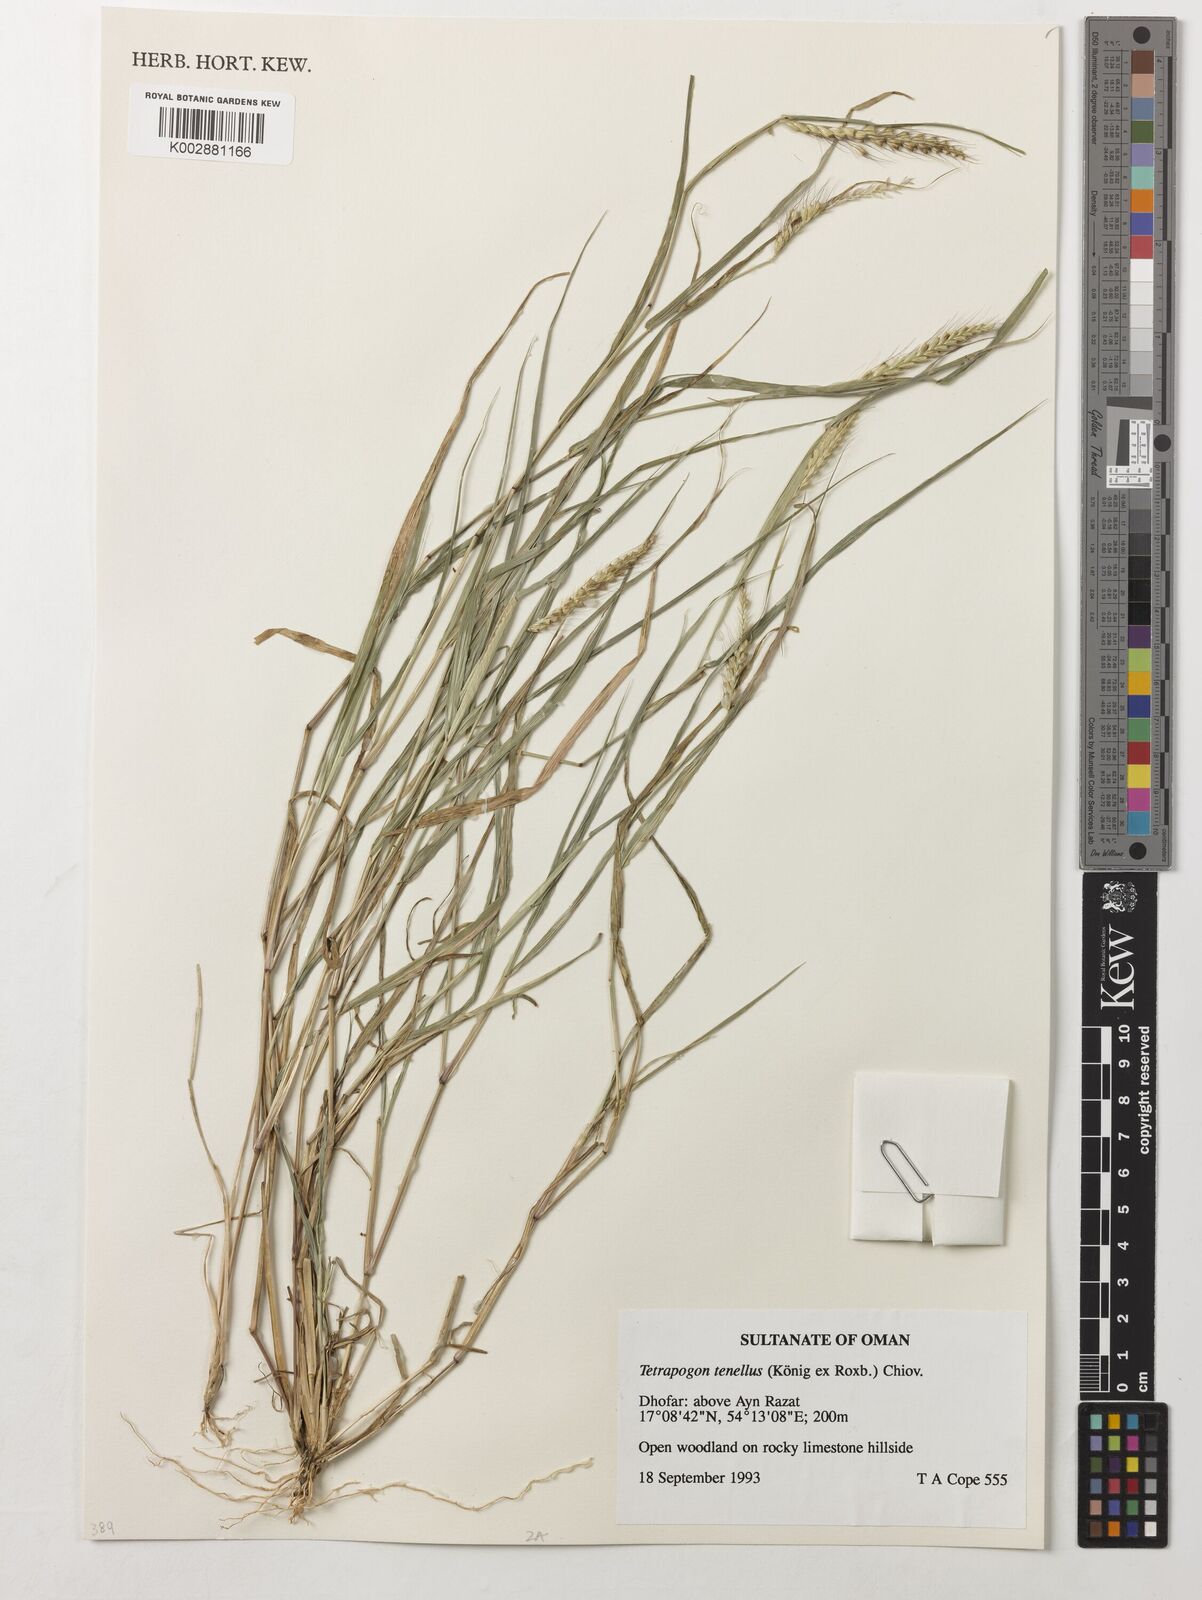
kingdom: Plantae
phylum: Tracheophyta
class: Liliopsida
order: Poales
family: Poaceae
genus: Tetrapogon
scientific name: Tetrapogon tenellus
